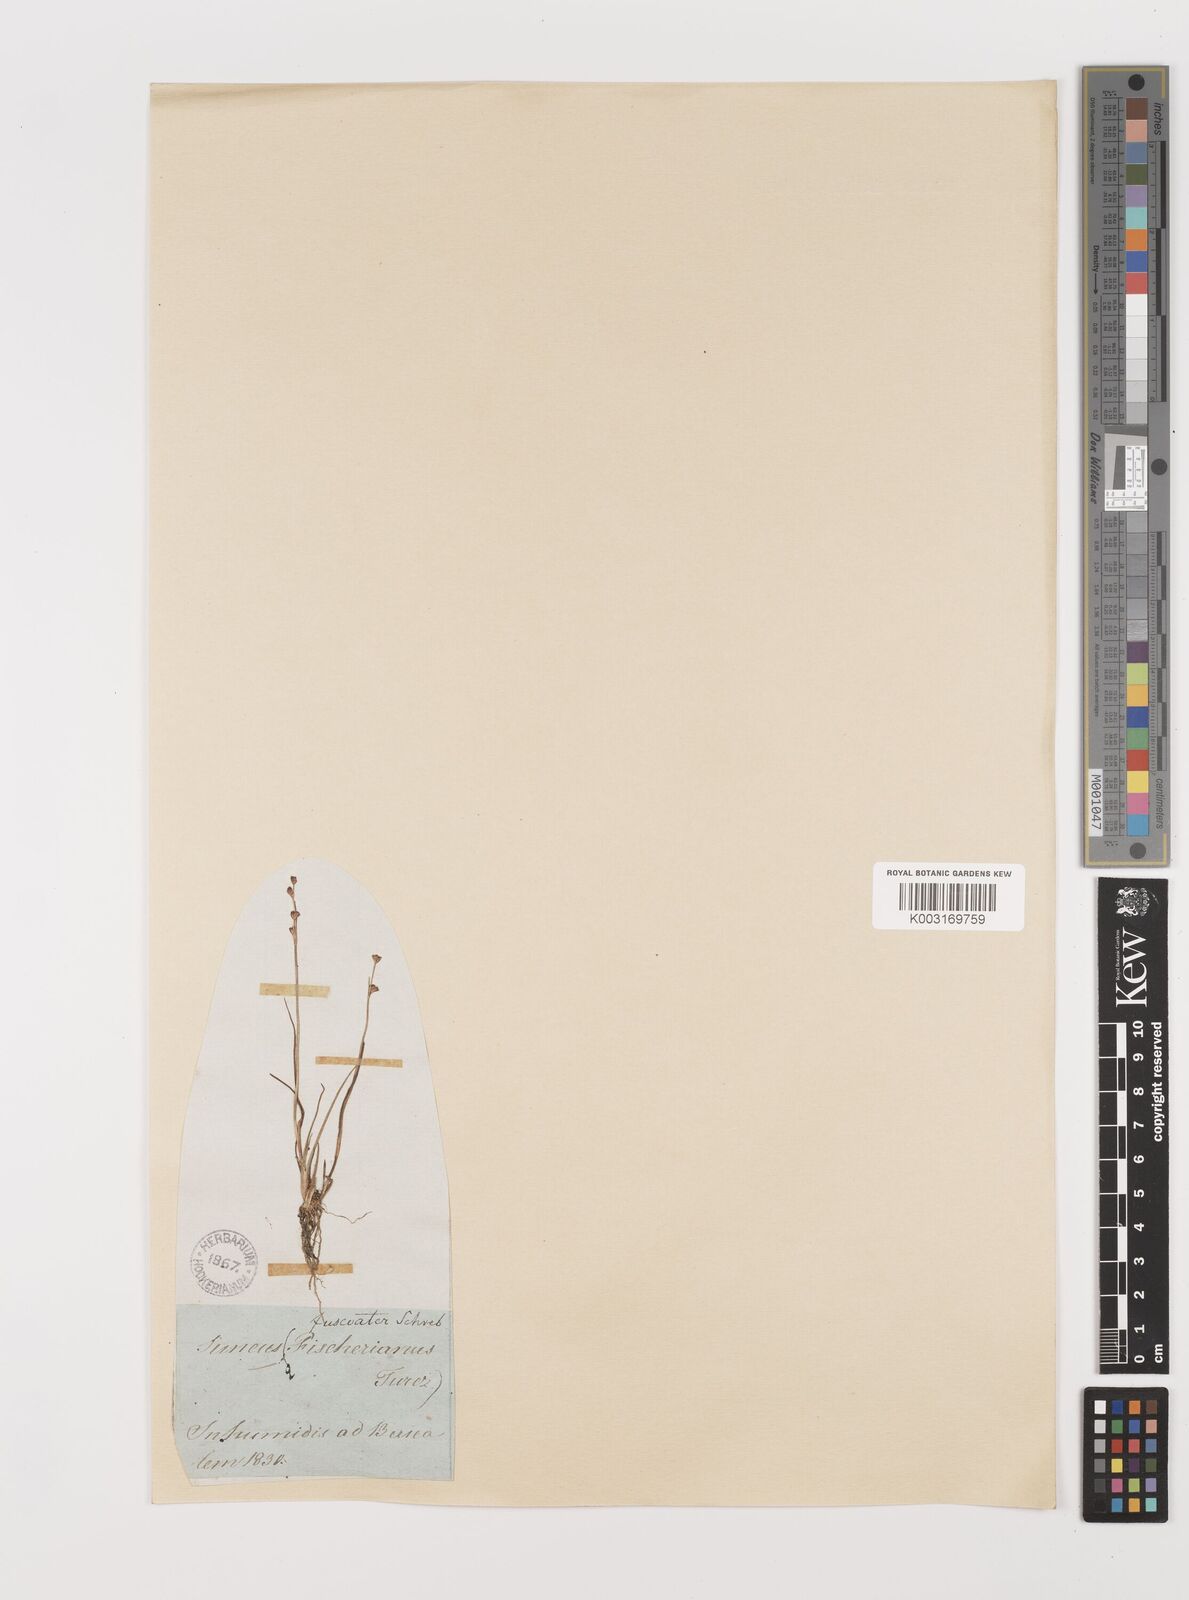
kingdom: Plantae
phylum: Tracheophyta
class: Liliopsida
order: Poales
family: Juncaceae
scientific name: Juncaceae
